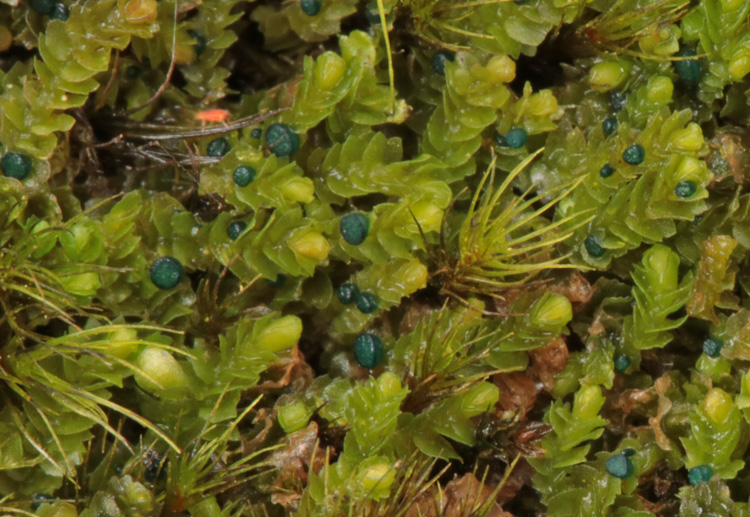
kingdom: Fungi
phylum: Ascomycota
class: Leotiomycetes
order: Leotiales
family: Mniaeciaceae
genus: Mniaecia
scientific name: Mniaecia jungermanniae
